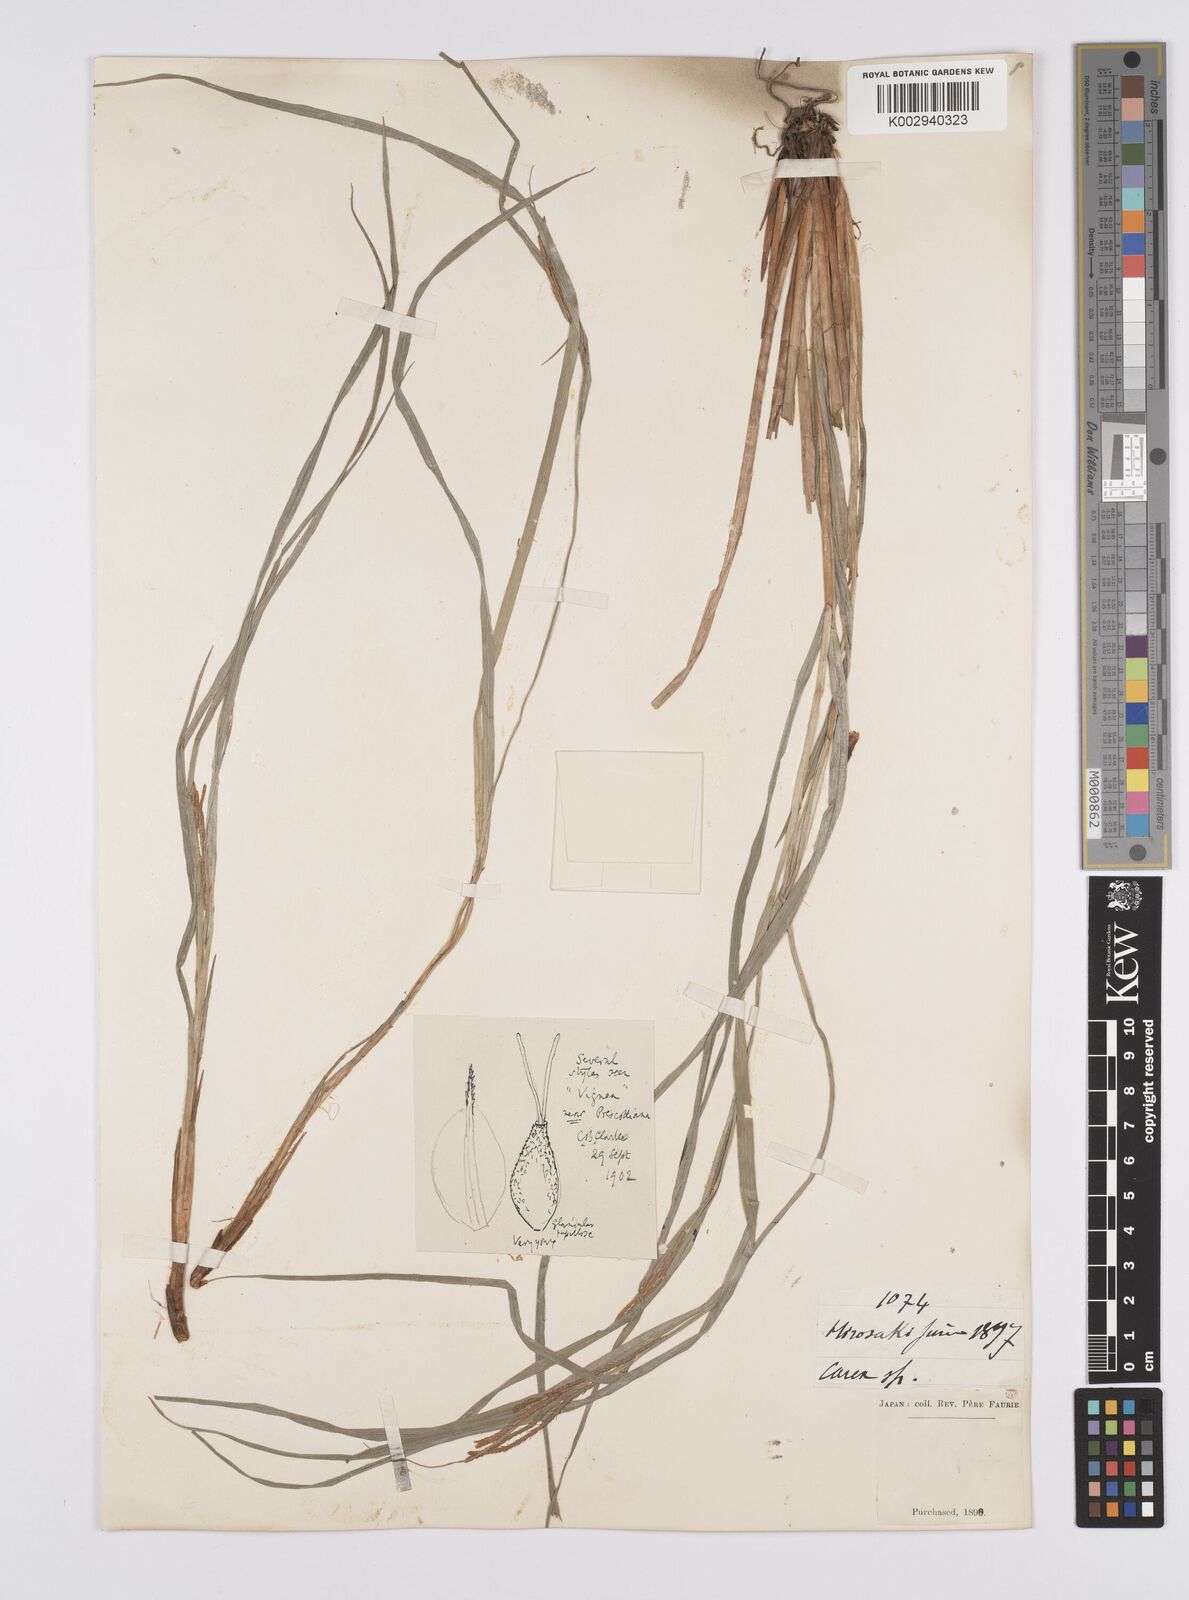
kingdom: Plantae
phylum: Tracheophyta
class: Liliopsida
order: Poales
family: Cyperaceae
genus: Carex
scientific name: Carex prescottiana
